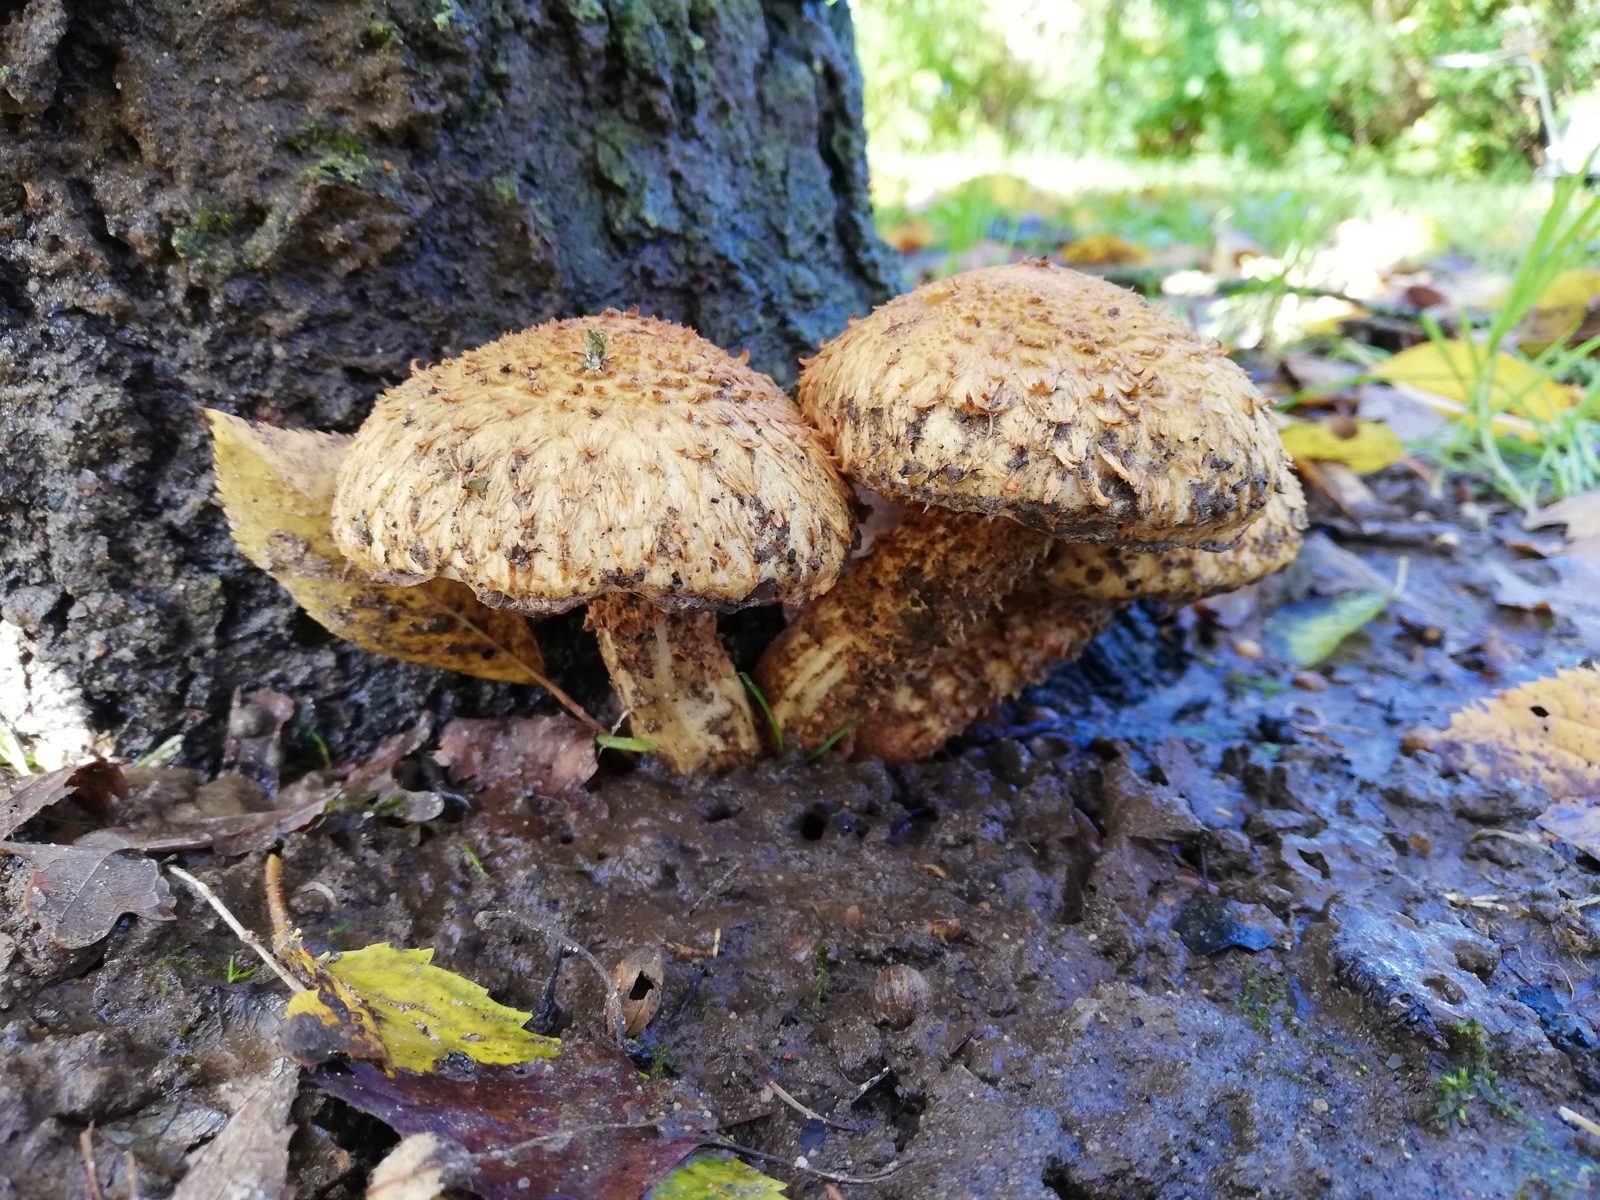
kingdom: Fungi
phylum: Basidiomycota
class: Agaricomycetes
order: Agaricales
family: Strophariaceae
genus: Pholiota
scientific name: Pholiota squarrosa
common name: krumskællet skælhat
